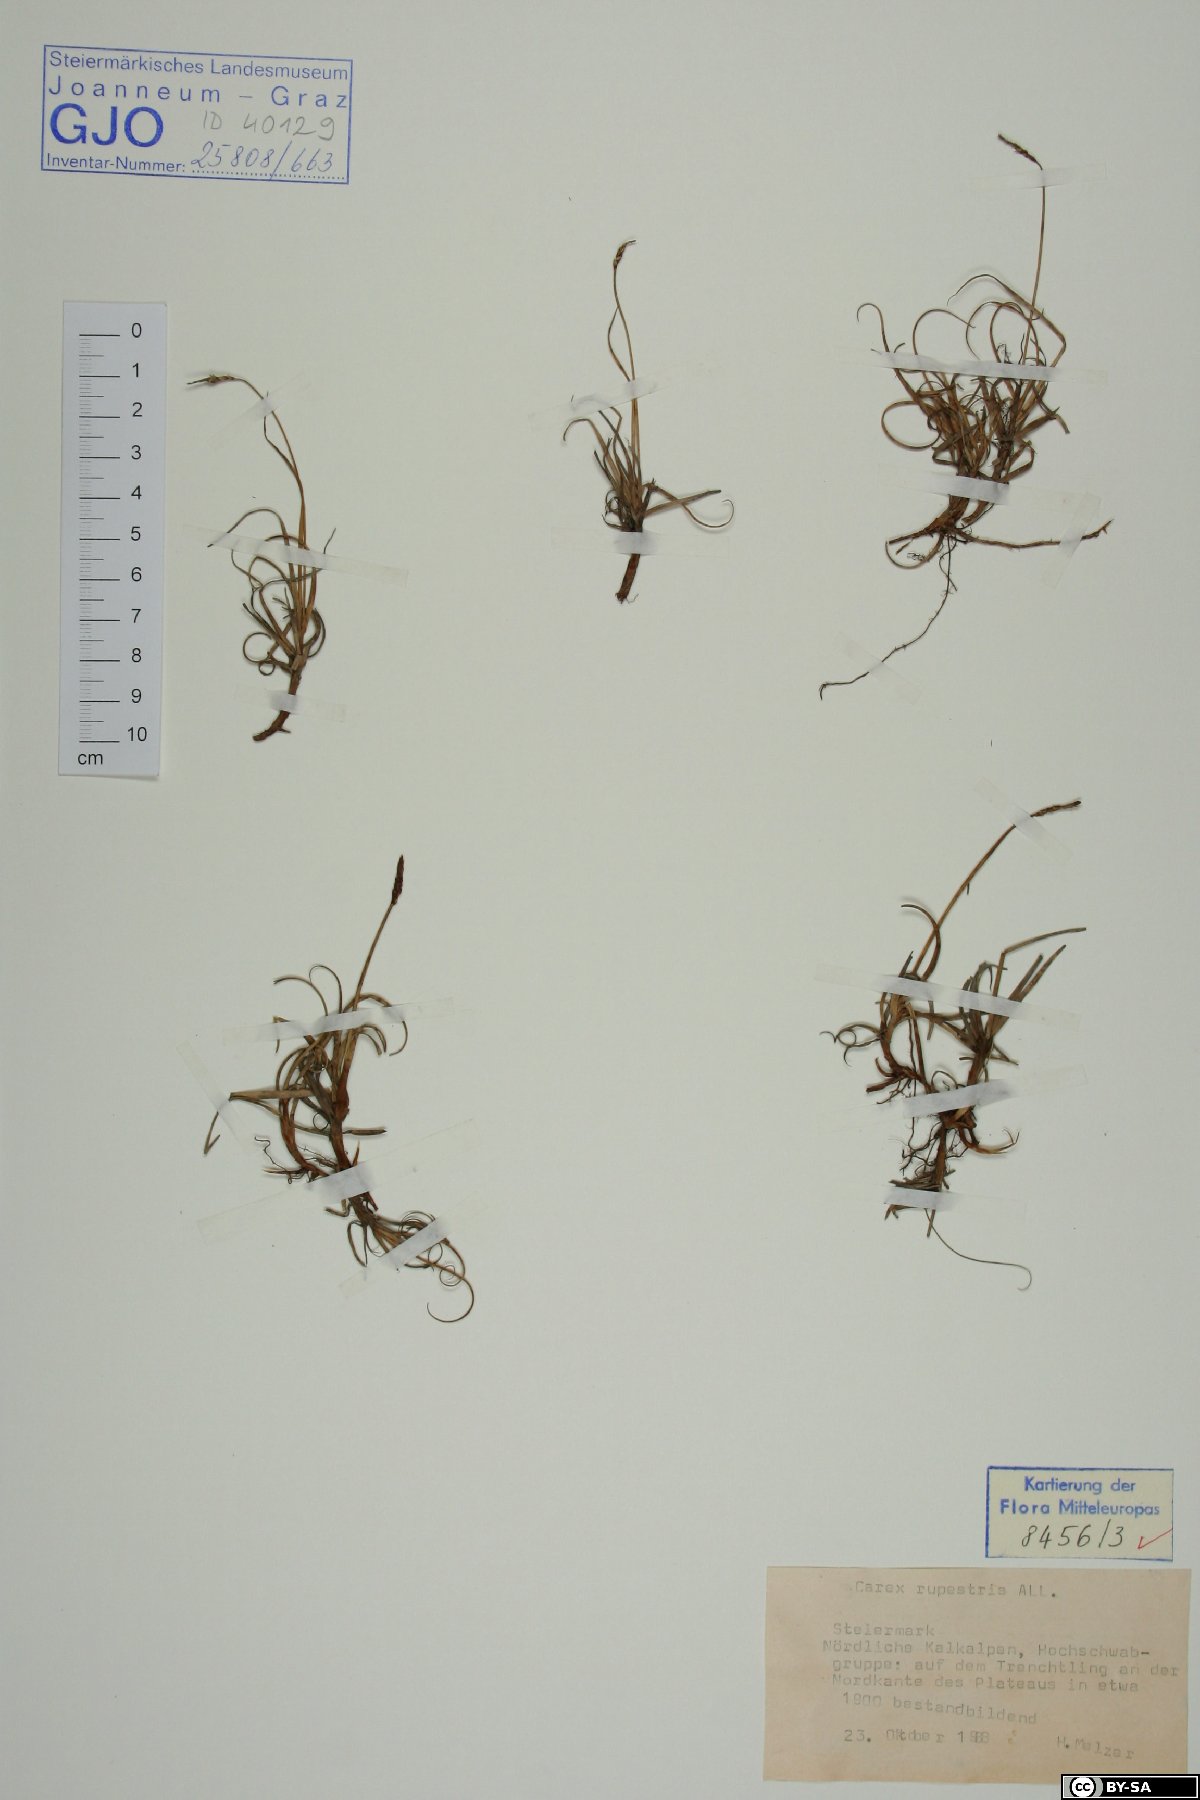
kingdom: Plantae
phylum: Tracheophyta
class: Liliopsida
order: Poales
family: Cyperaceae
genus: Carex
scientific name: Carex rupestris
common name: Rock sedge
